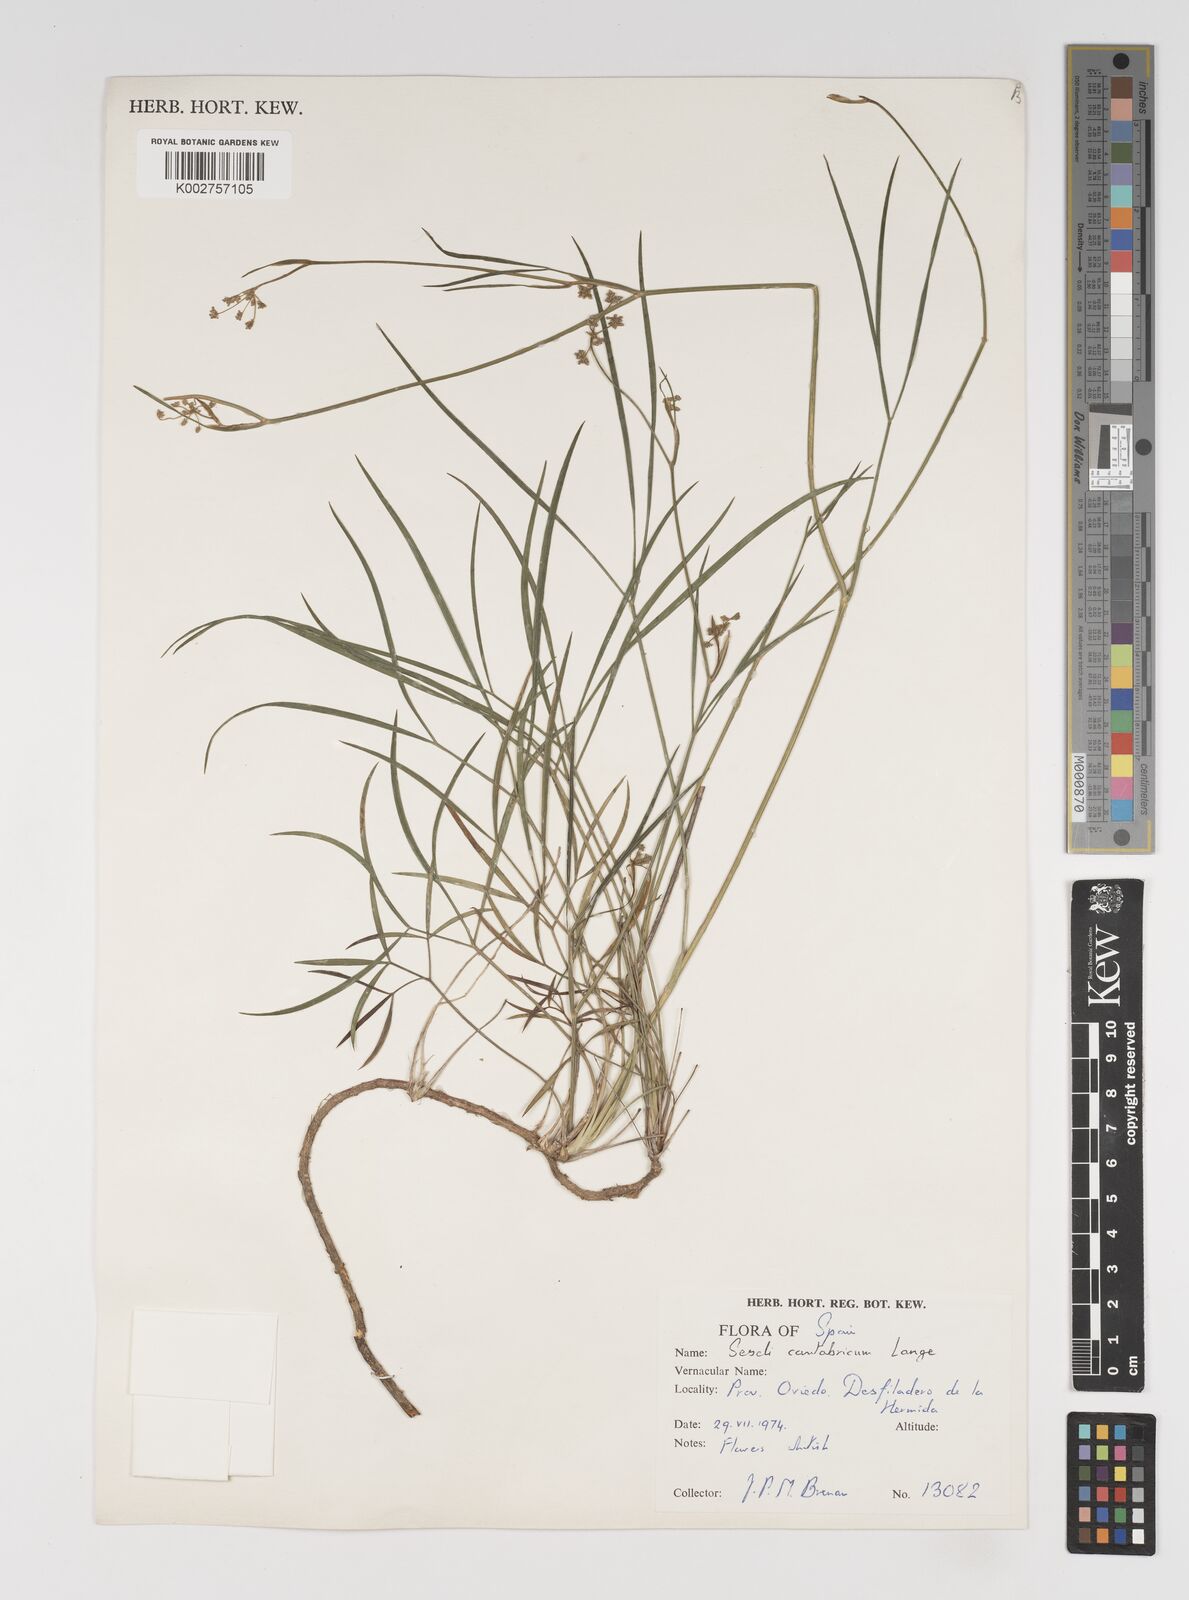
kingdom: Plantae
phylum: Tracheophyta
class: Magnoliopsida
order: Apiales
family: Apiaceae
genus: Seseli
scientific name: Seseli montanum
